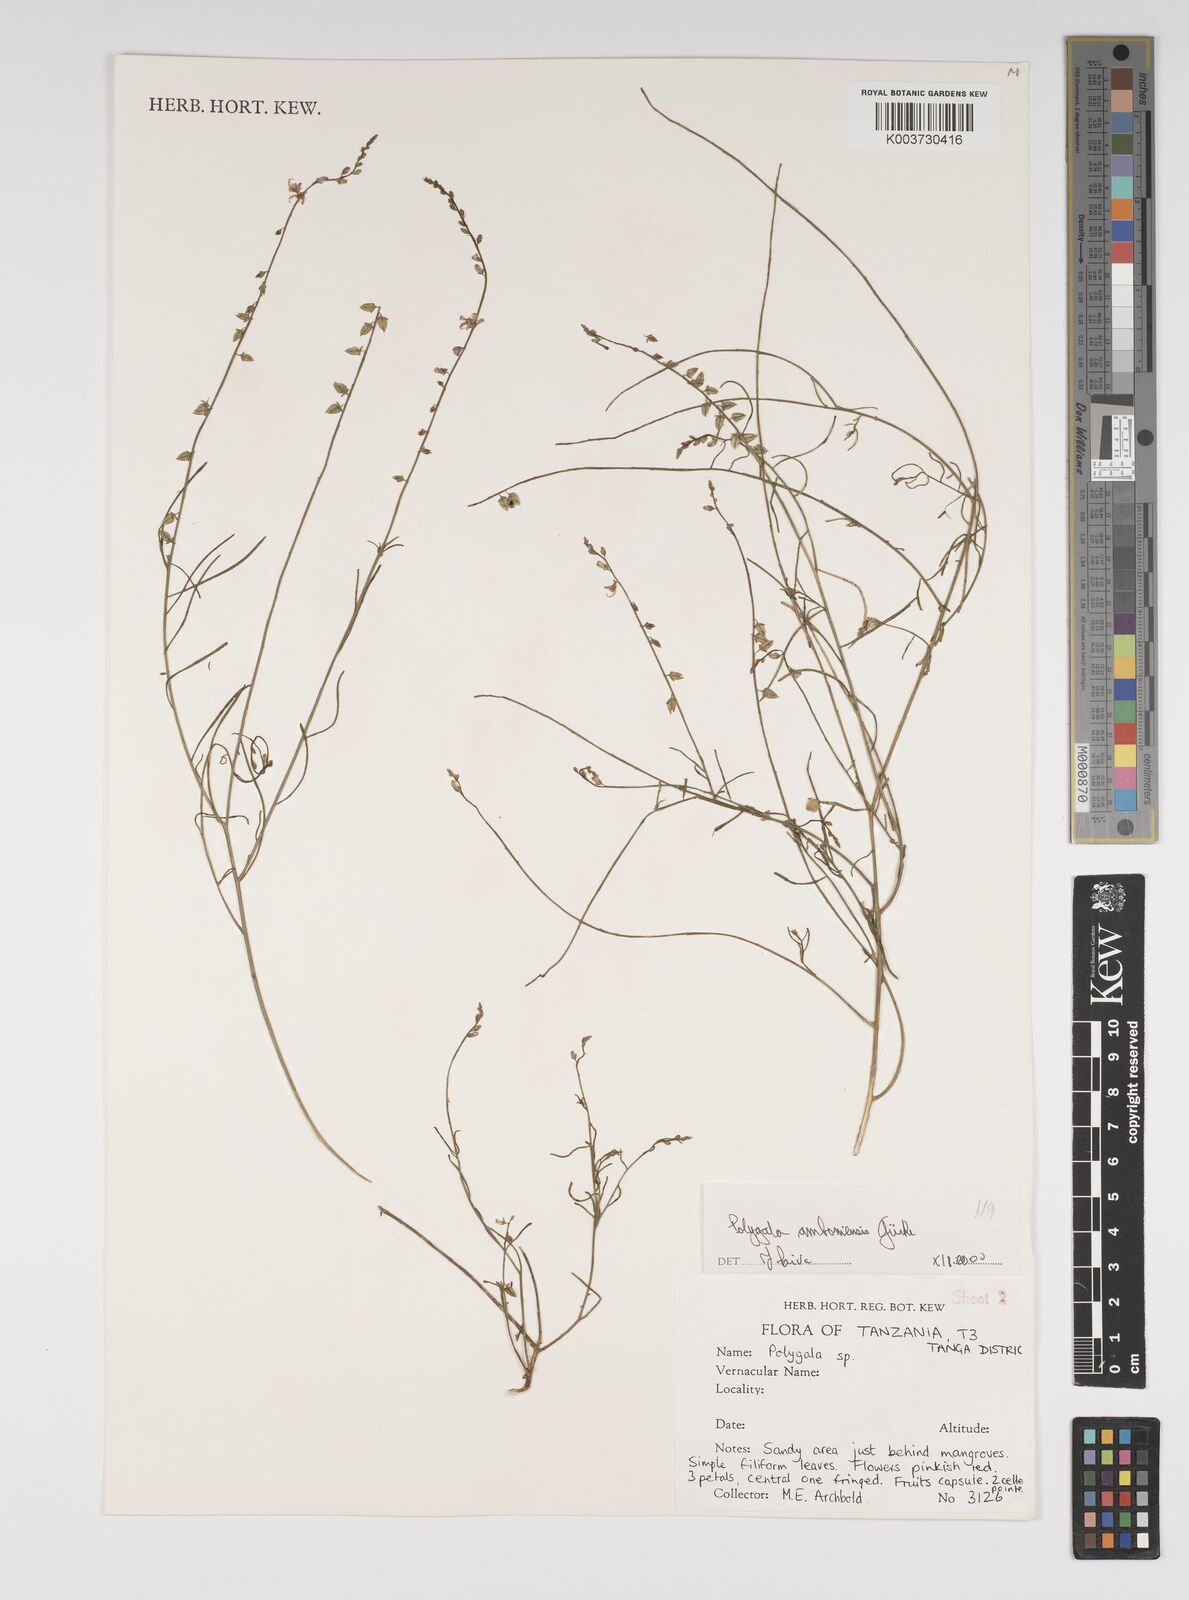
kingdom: Plantae
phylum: Tracheophyta
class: Magnoliopsida
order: Fabales
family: Polygalaceae
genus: Polygala
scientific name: Polygala amboniensis
